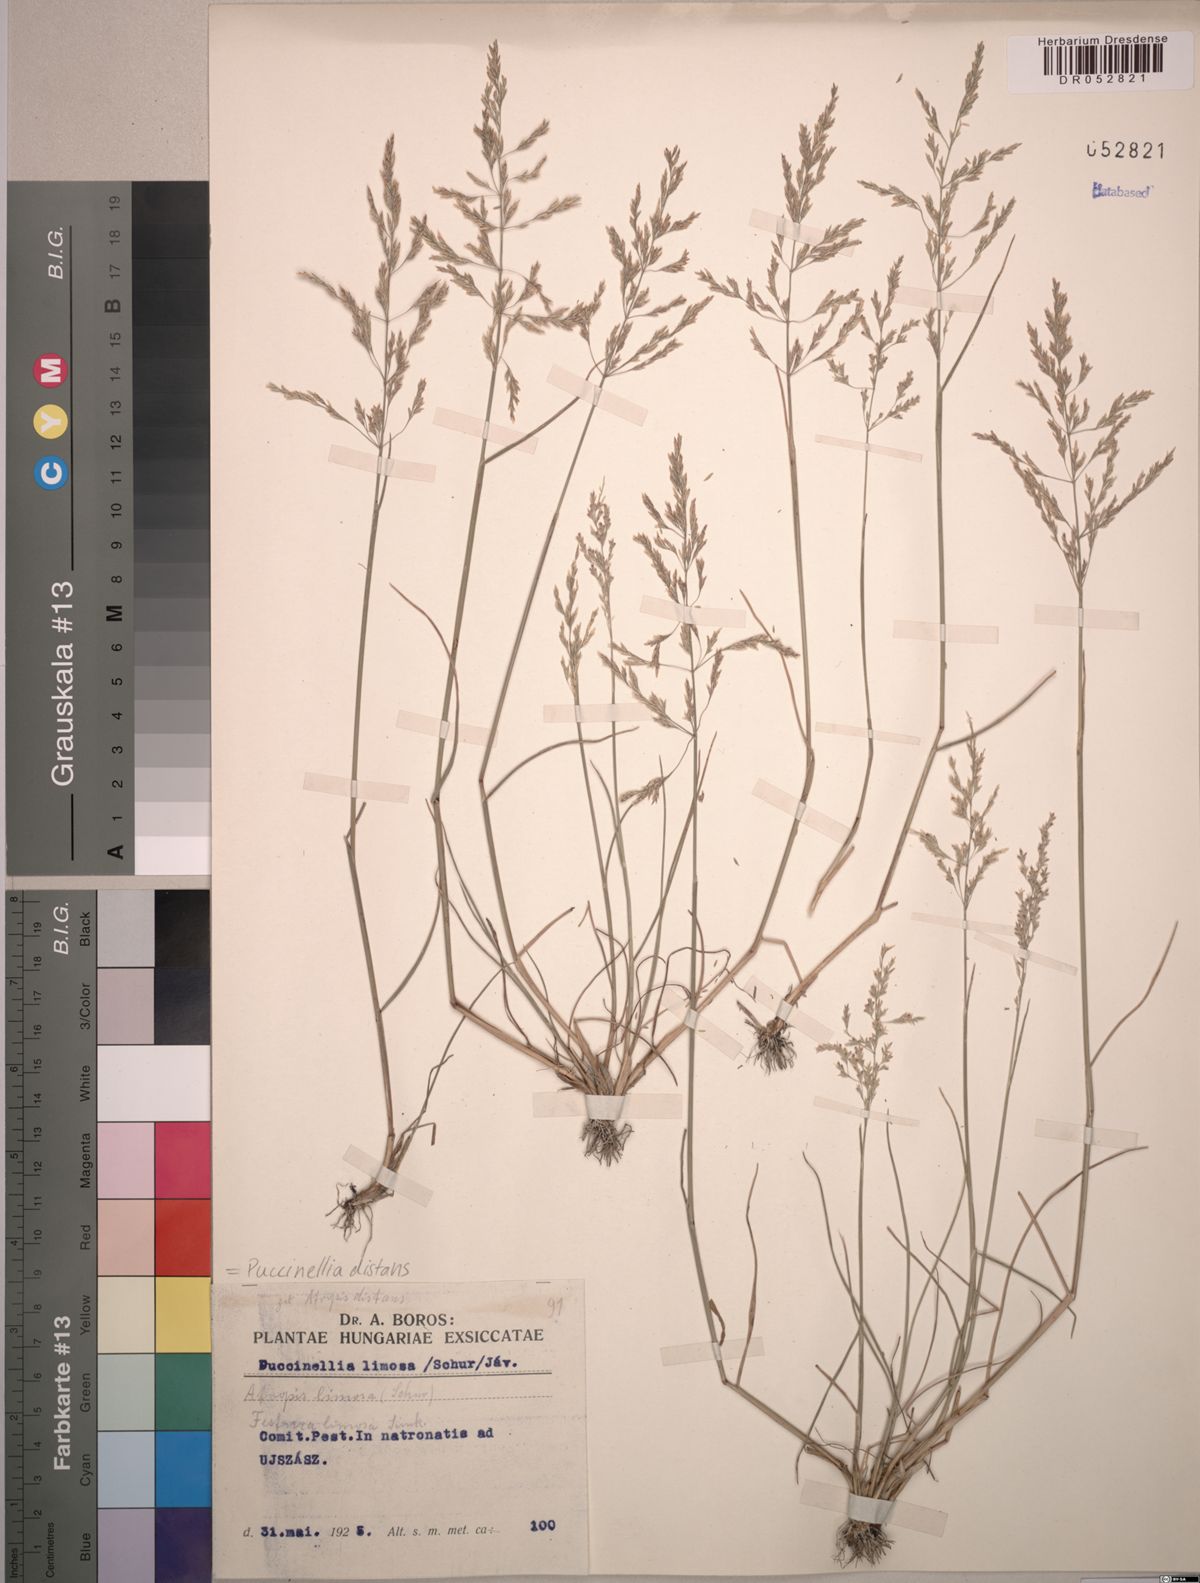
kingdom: Plantae
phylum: Tracheophyta
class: Liliopsida
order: Poales
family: Poaceae
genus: Puccinellia
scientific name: Puccinellia distans
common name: Weeping alkaligrass
